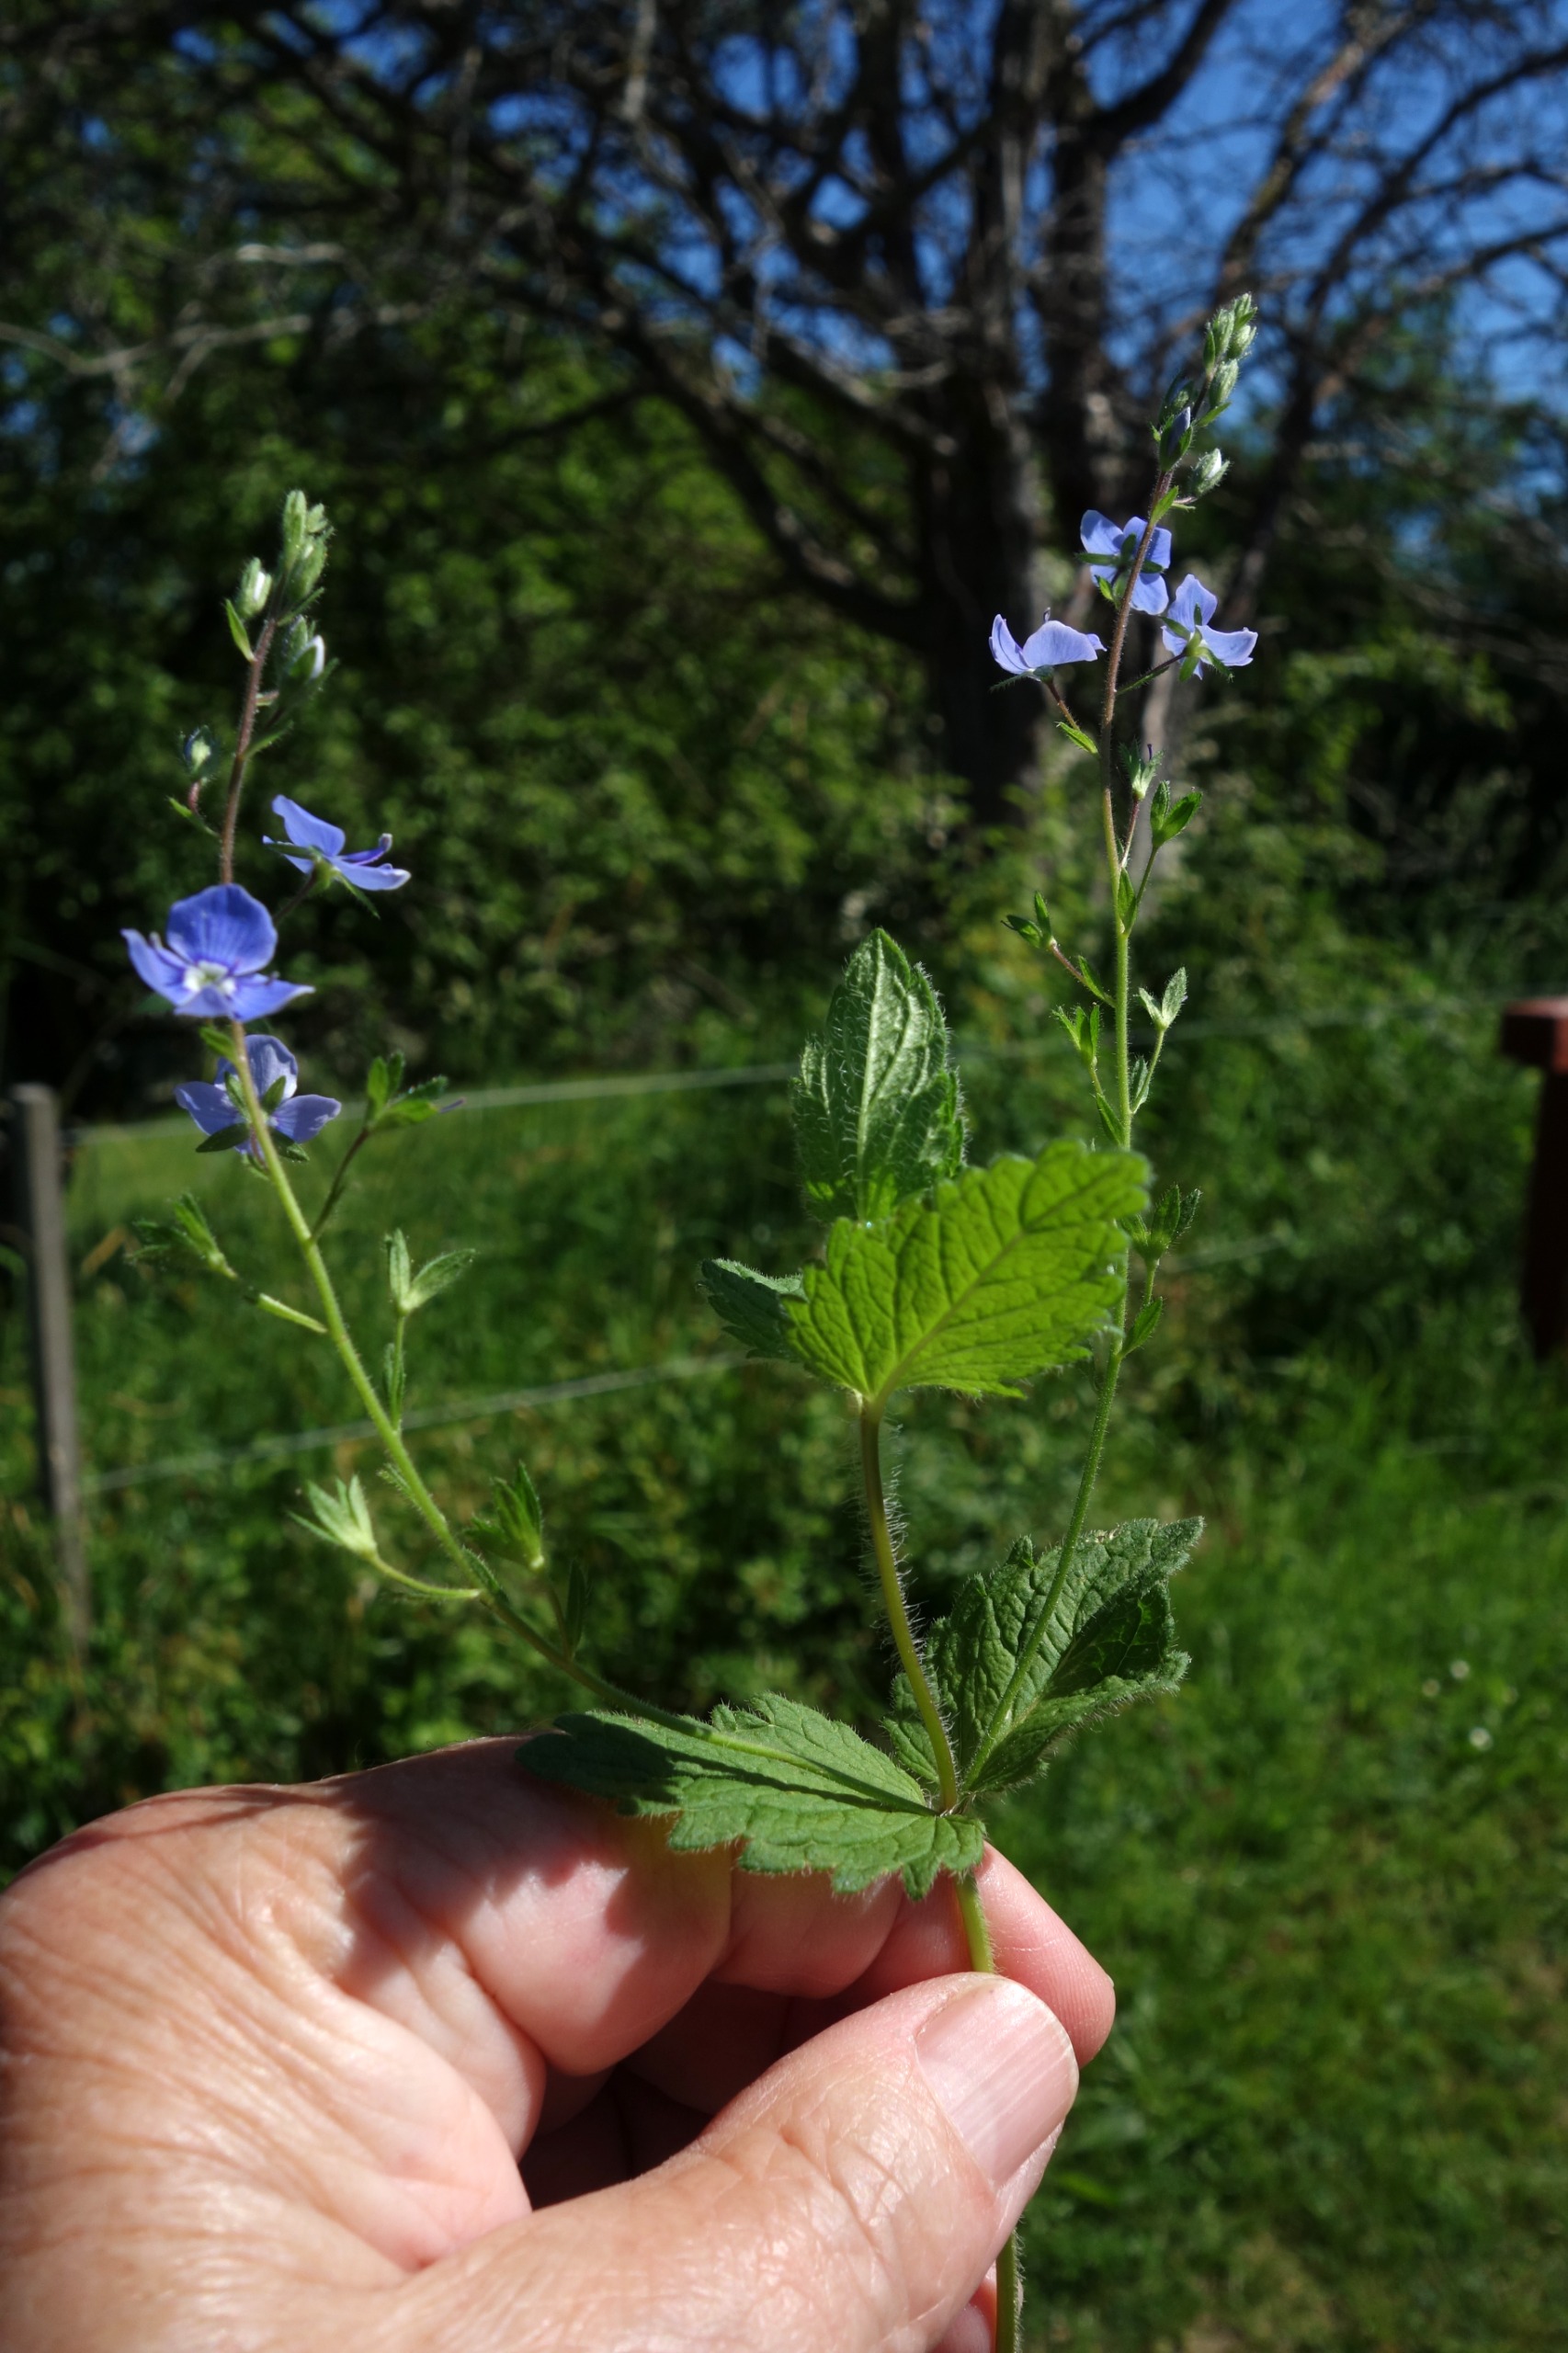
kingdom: Plantae
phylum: Tracheophyta
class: Magnoliopsida
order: Lamiales
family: Plantaginaceae
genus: Veronica
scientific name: Veronica chamaedrys
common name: Tveskægget ærenpris
